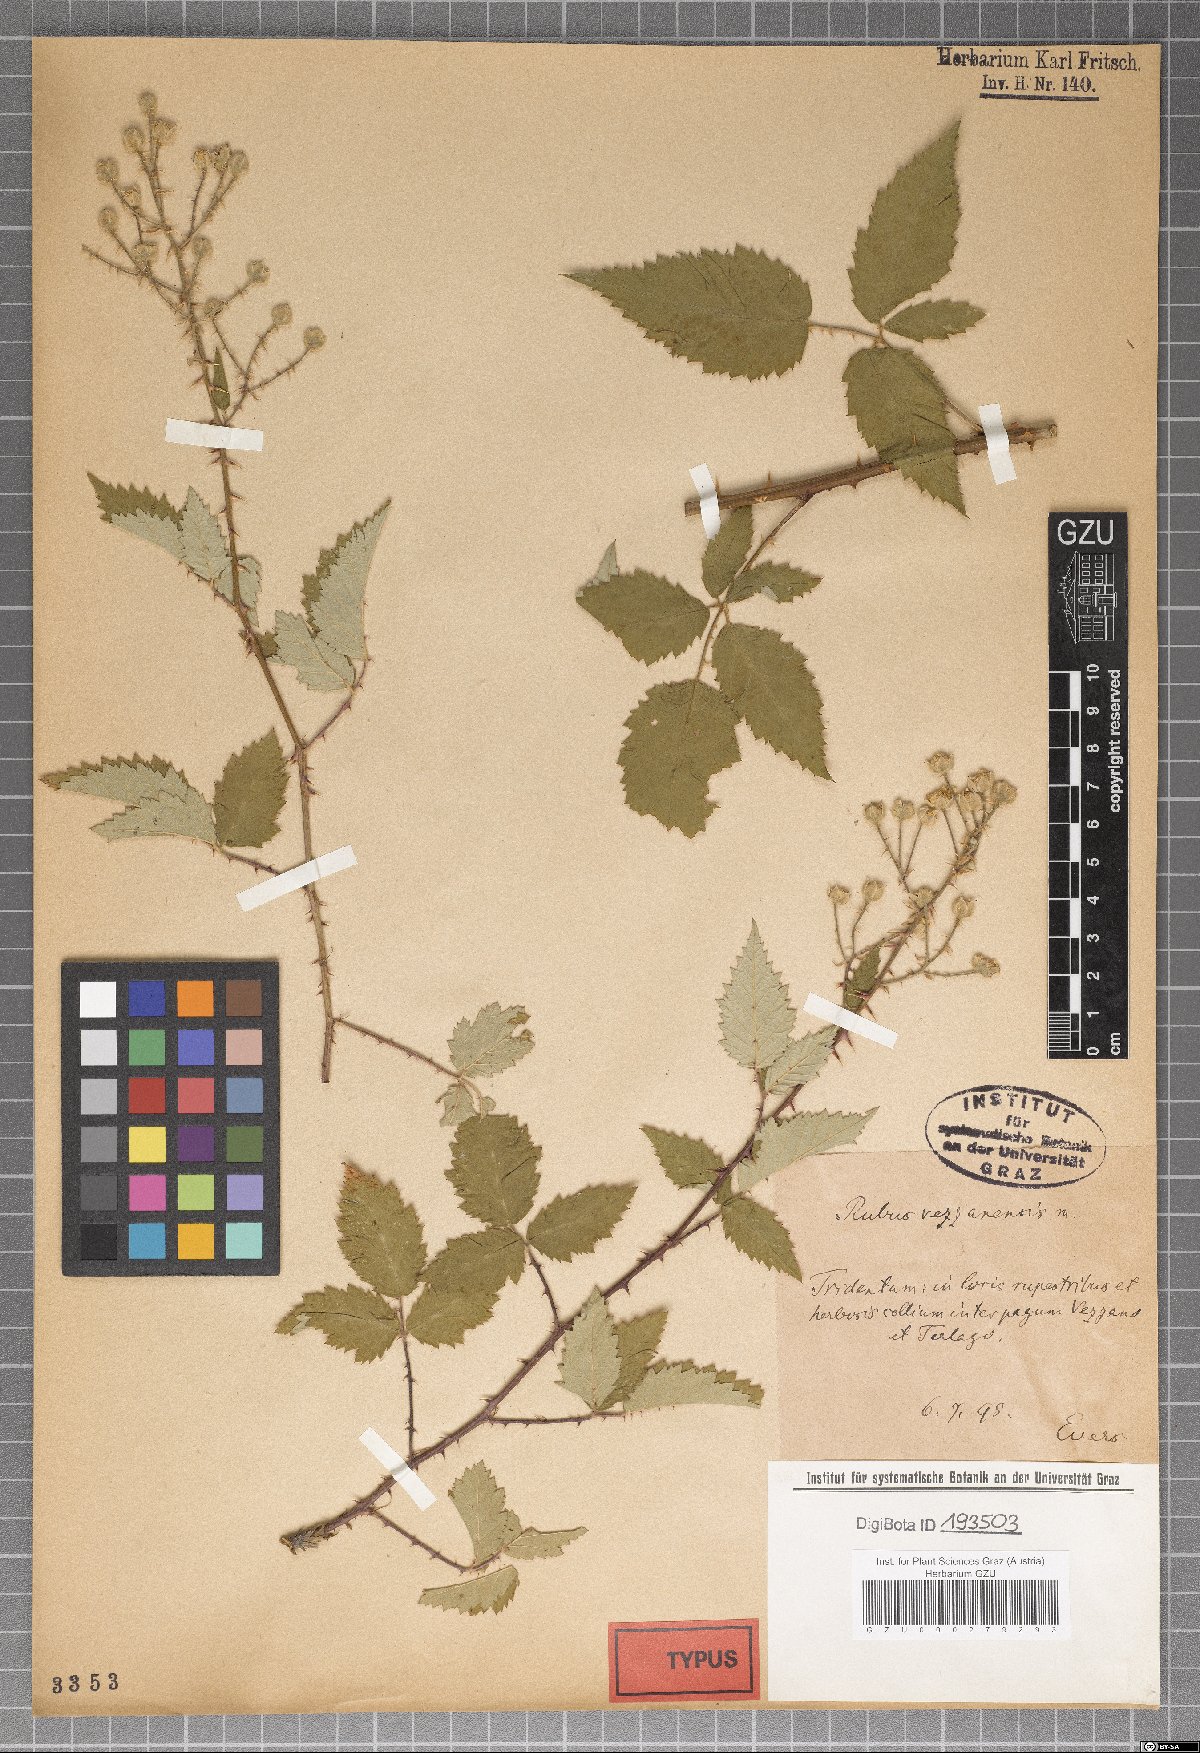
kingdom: Plantae
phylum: Tracheophyta
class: Magnoliopsida
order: Rosales
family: Rosaceae
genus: Rubus
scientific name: Rubus vezzanensis
